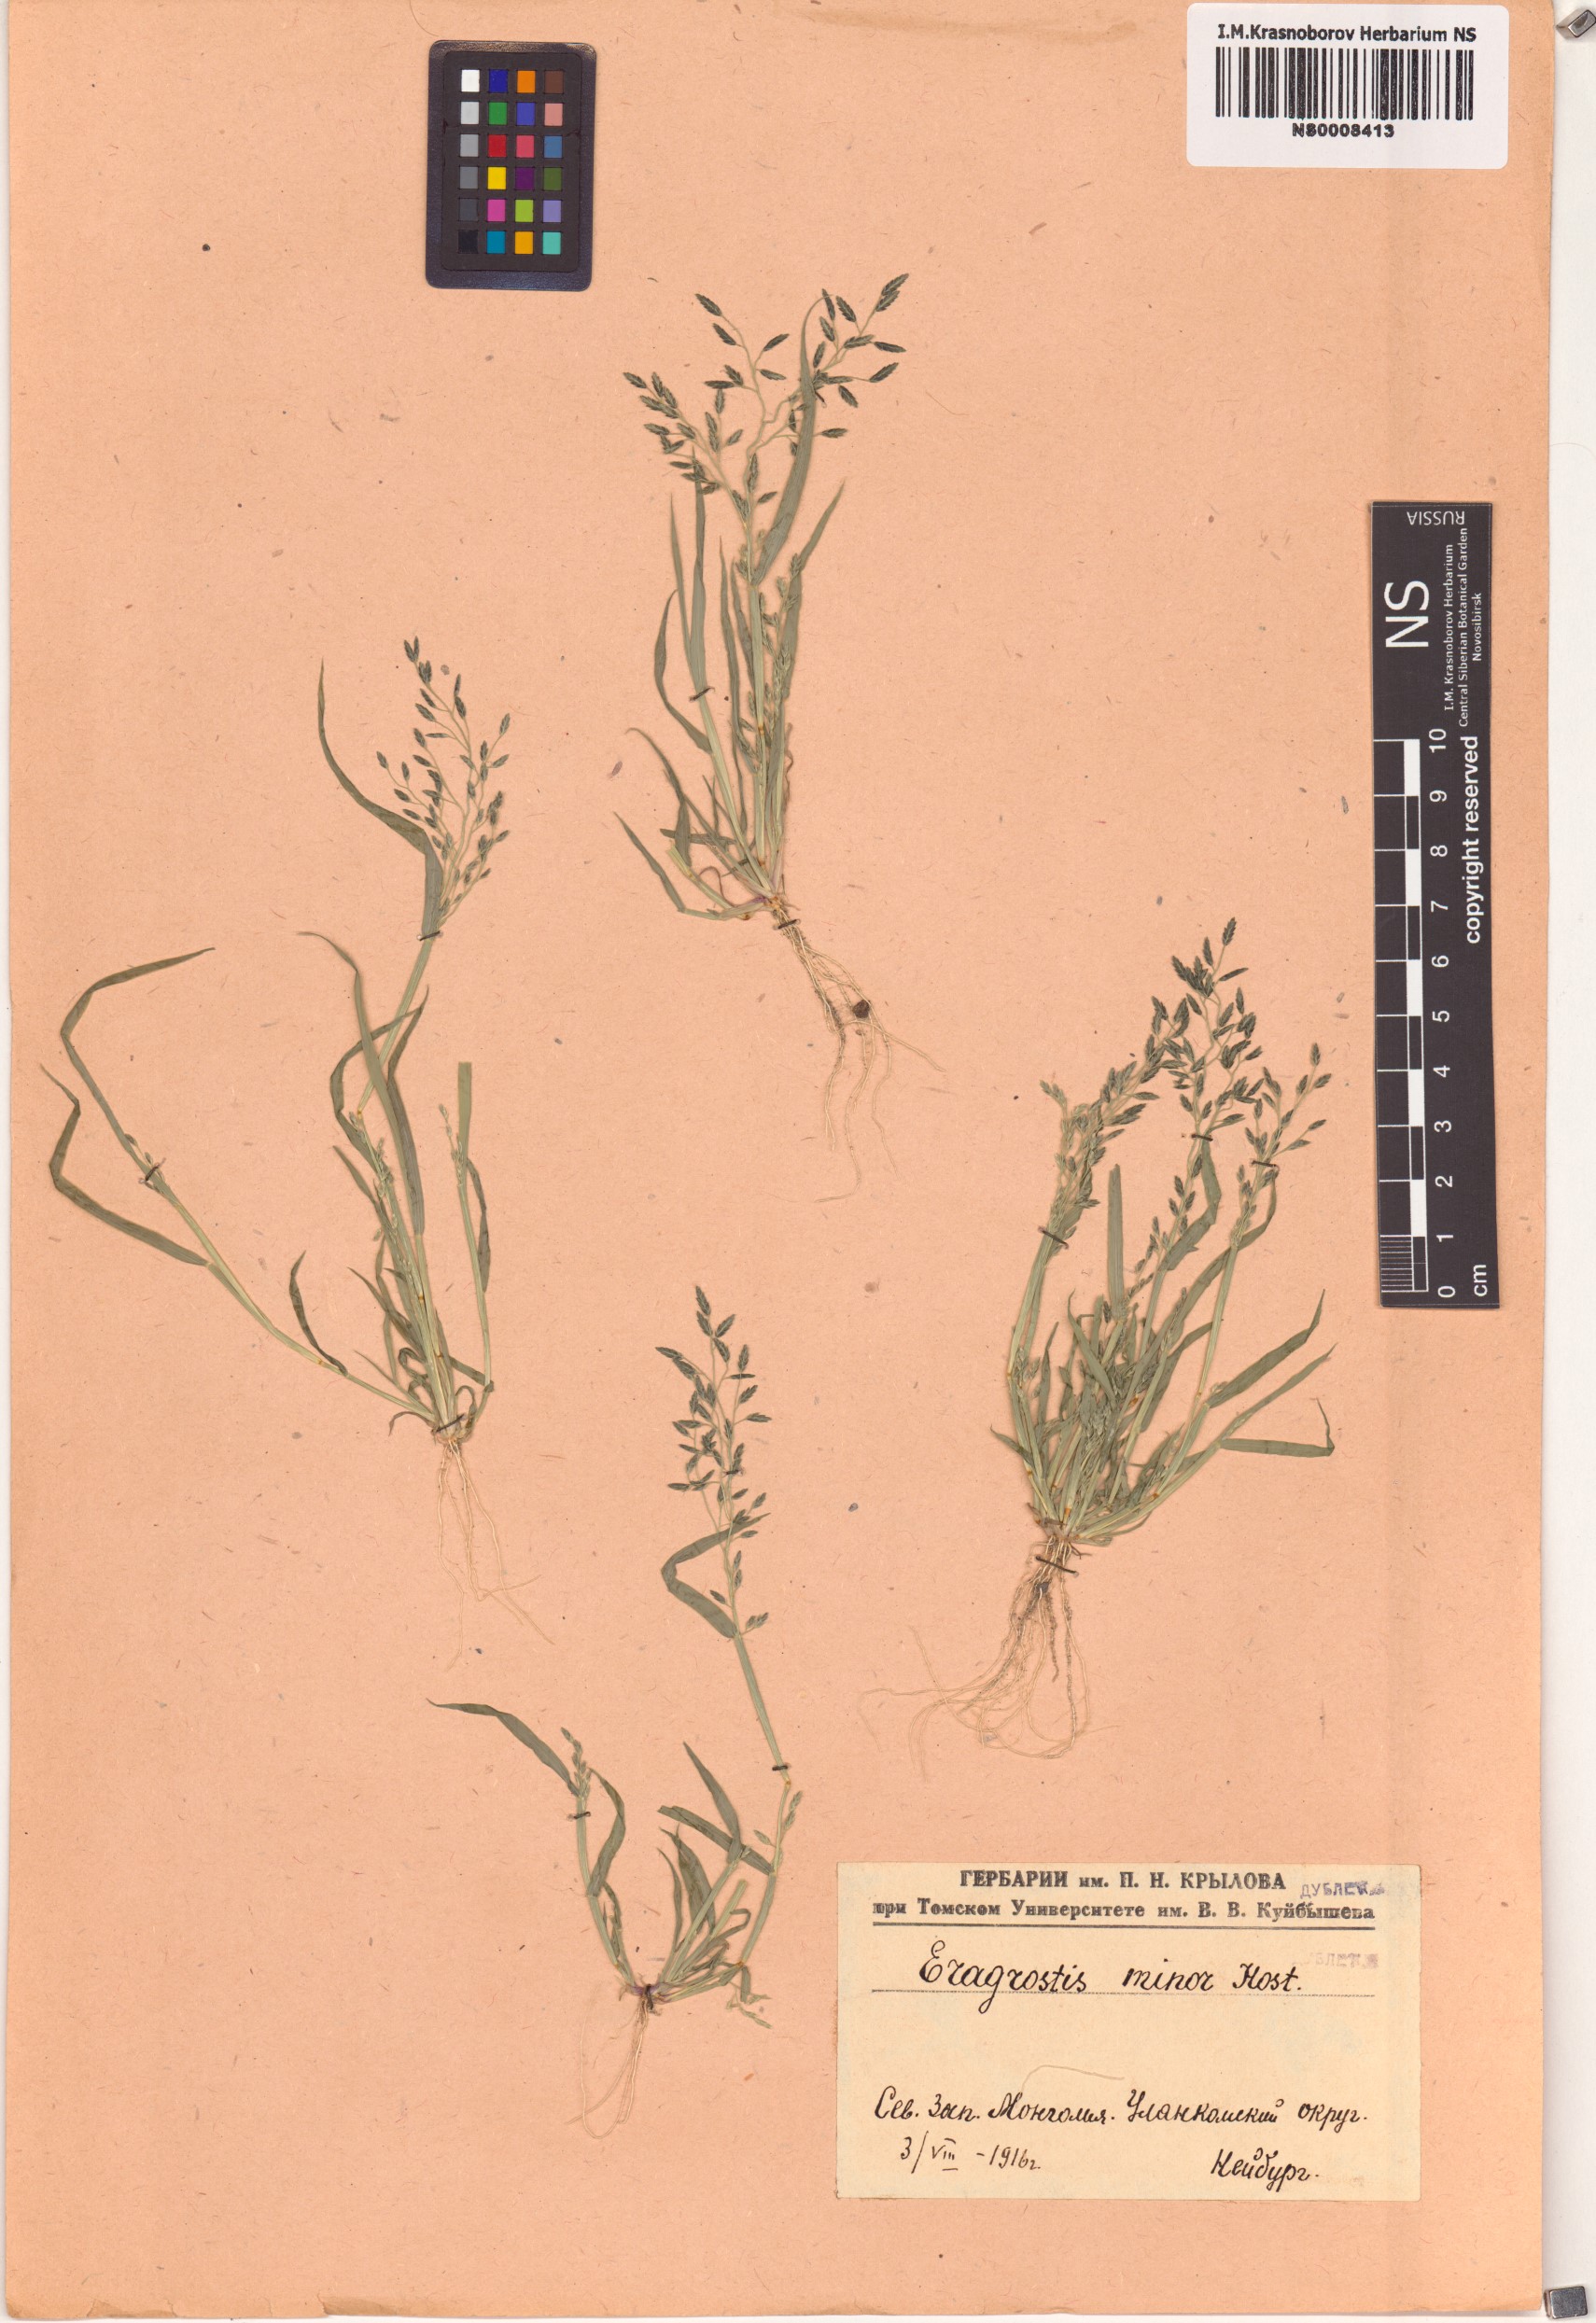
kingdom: Plantae
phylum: Tracheophyta
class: Liliopsida
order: Poales
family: Poaceae
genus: Eragrostis
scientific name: Eragrostis minor
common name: Small love-grass
